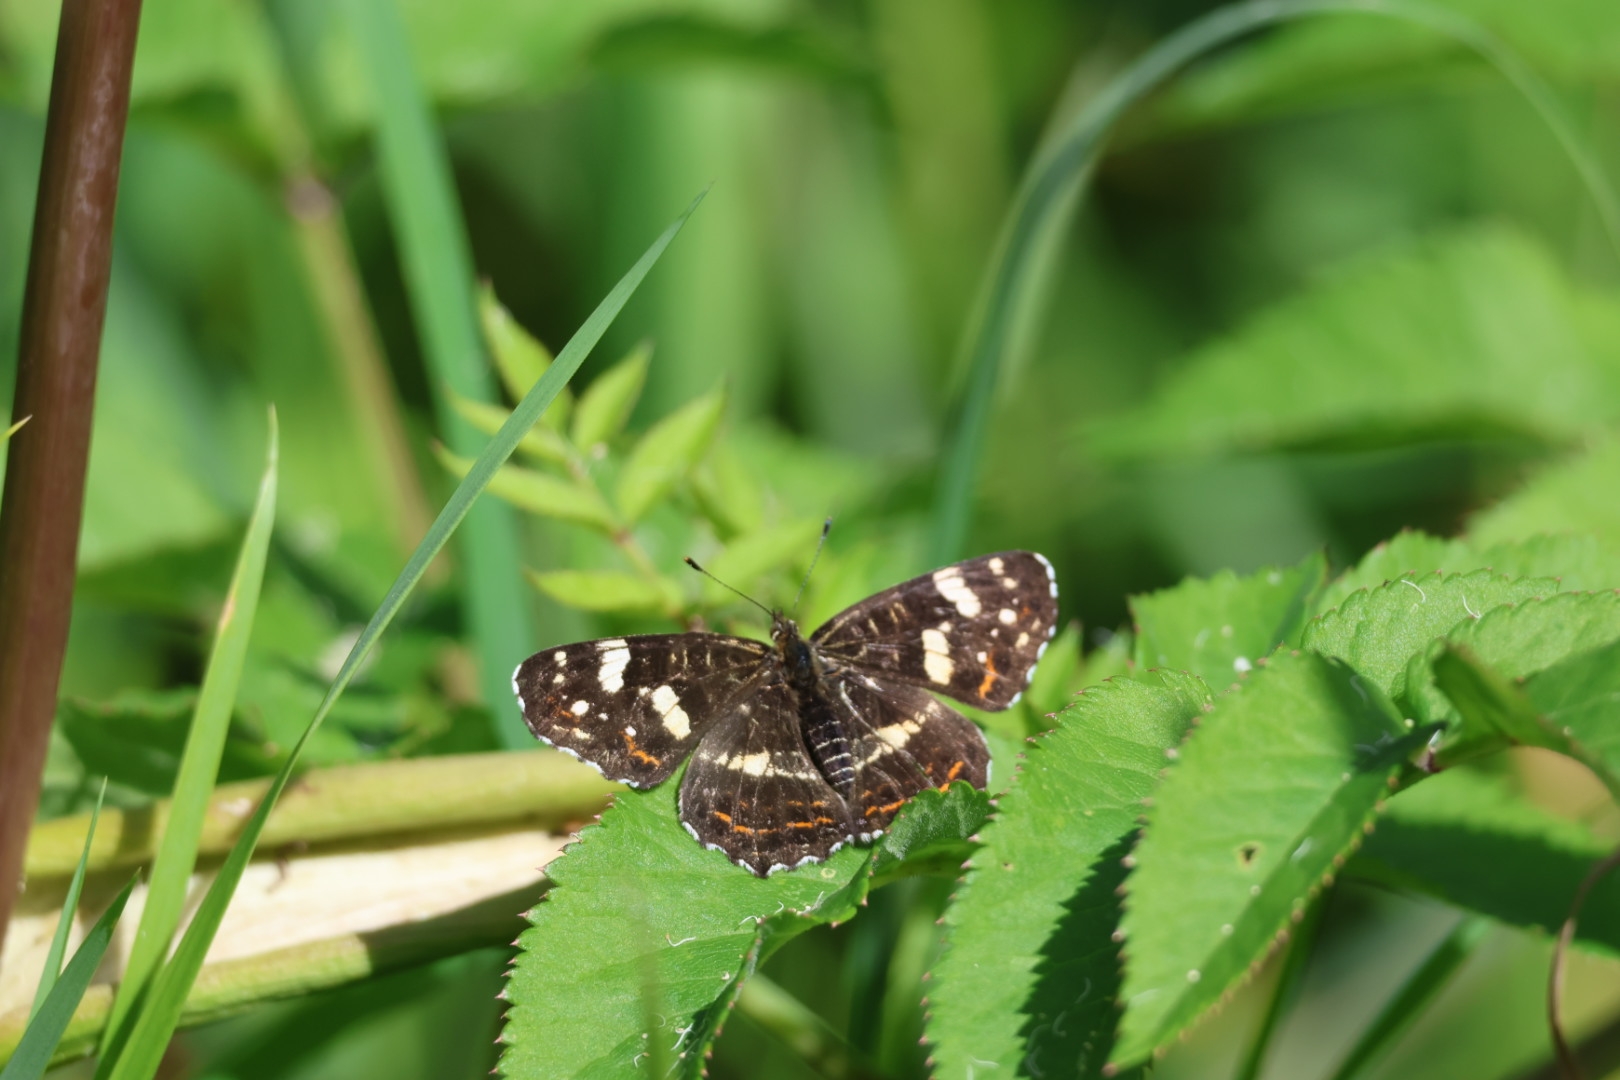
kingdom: Animalia
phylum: Arthropoda
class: Insecta
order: Lepidoptera
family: Nymphalidae
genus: Araschnia
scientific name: Araschnia levana
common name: Nældesommerfugl
